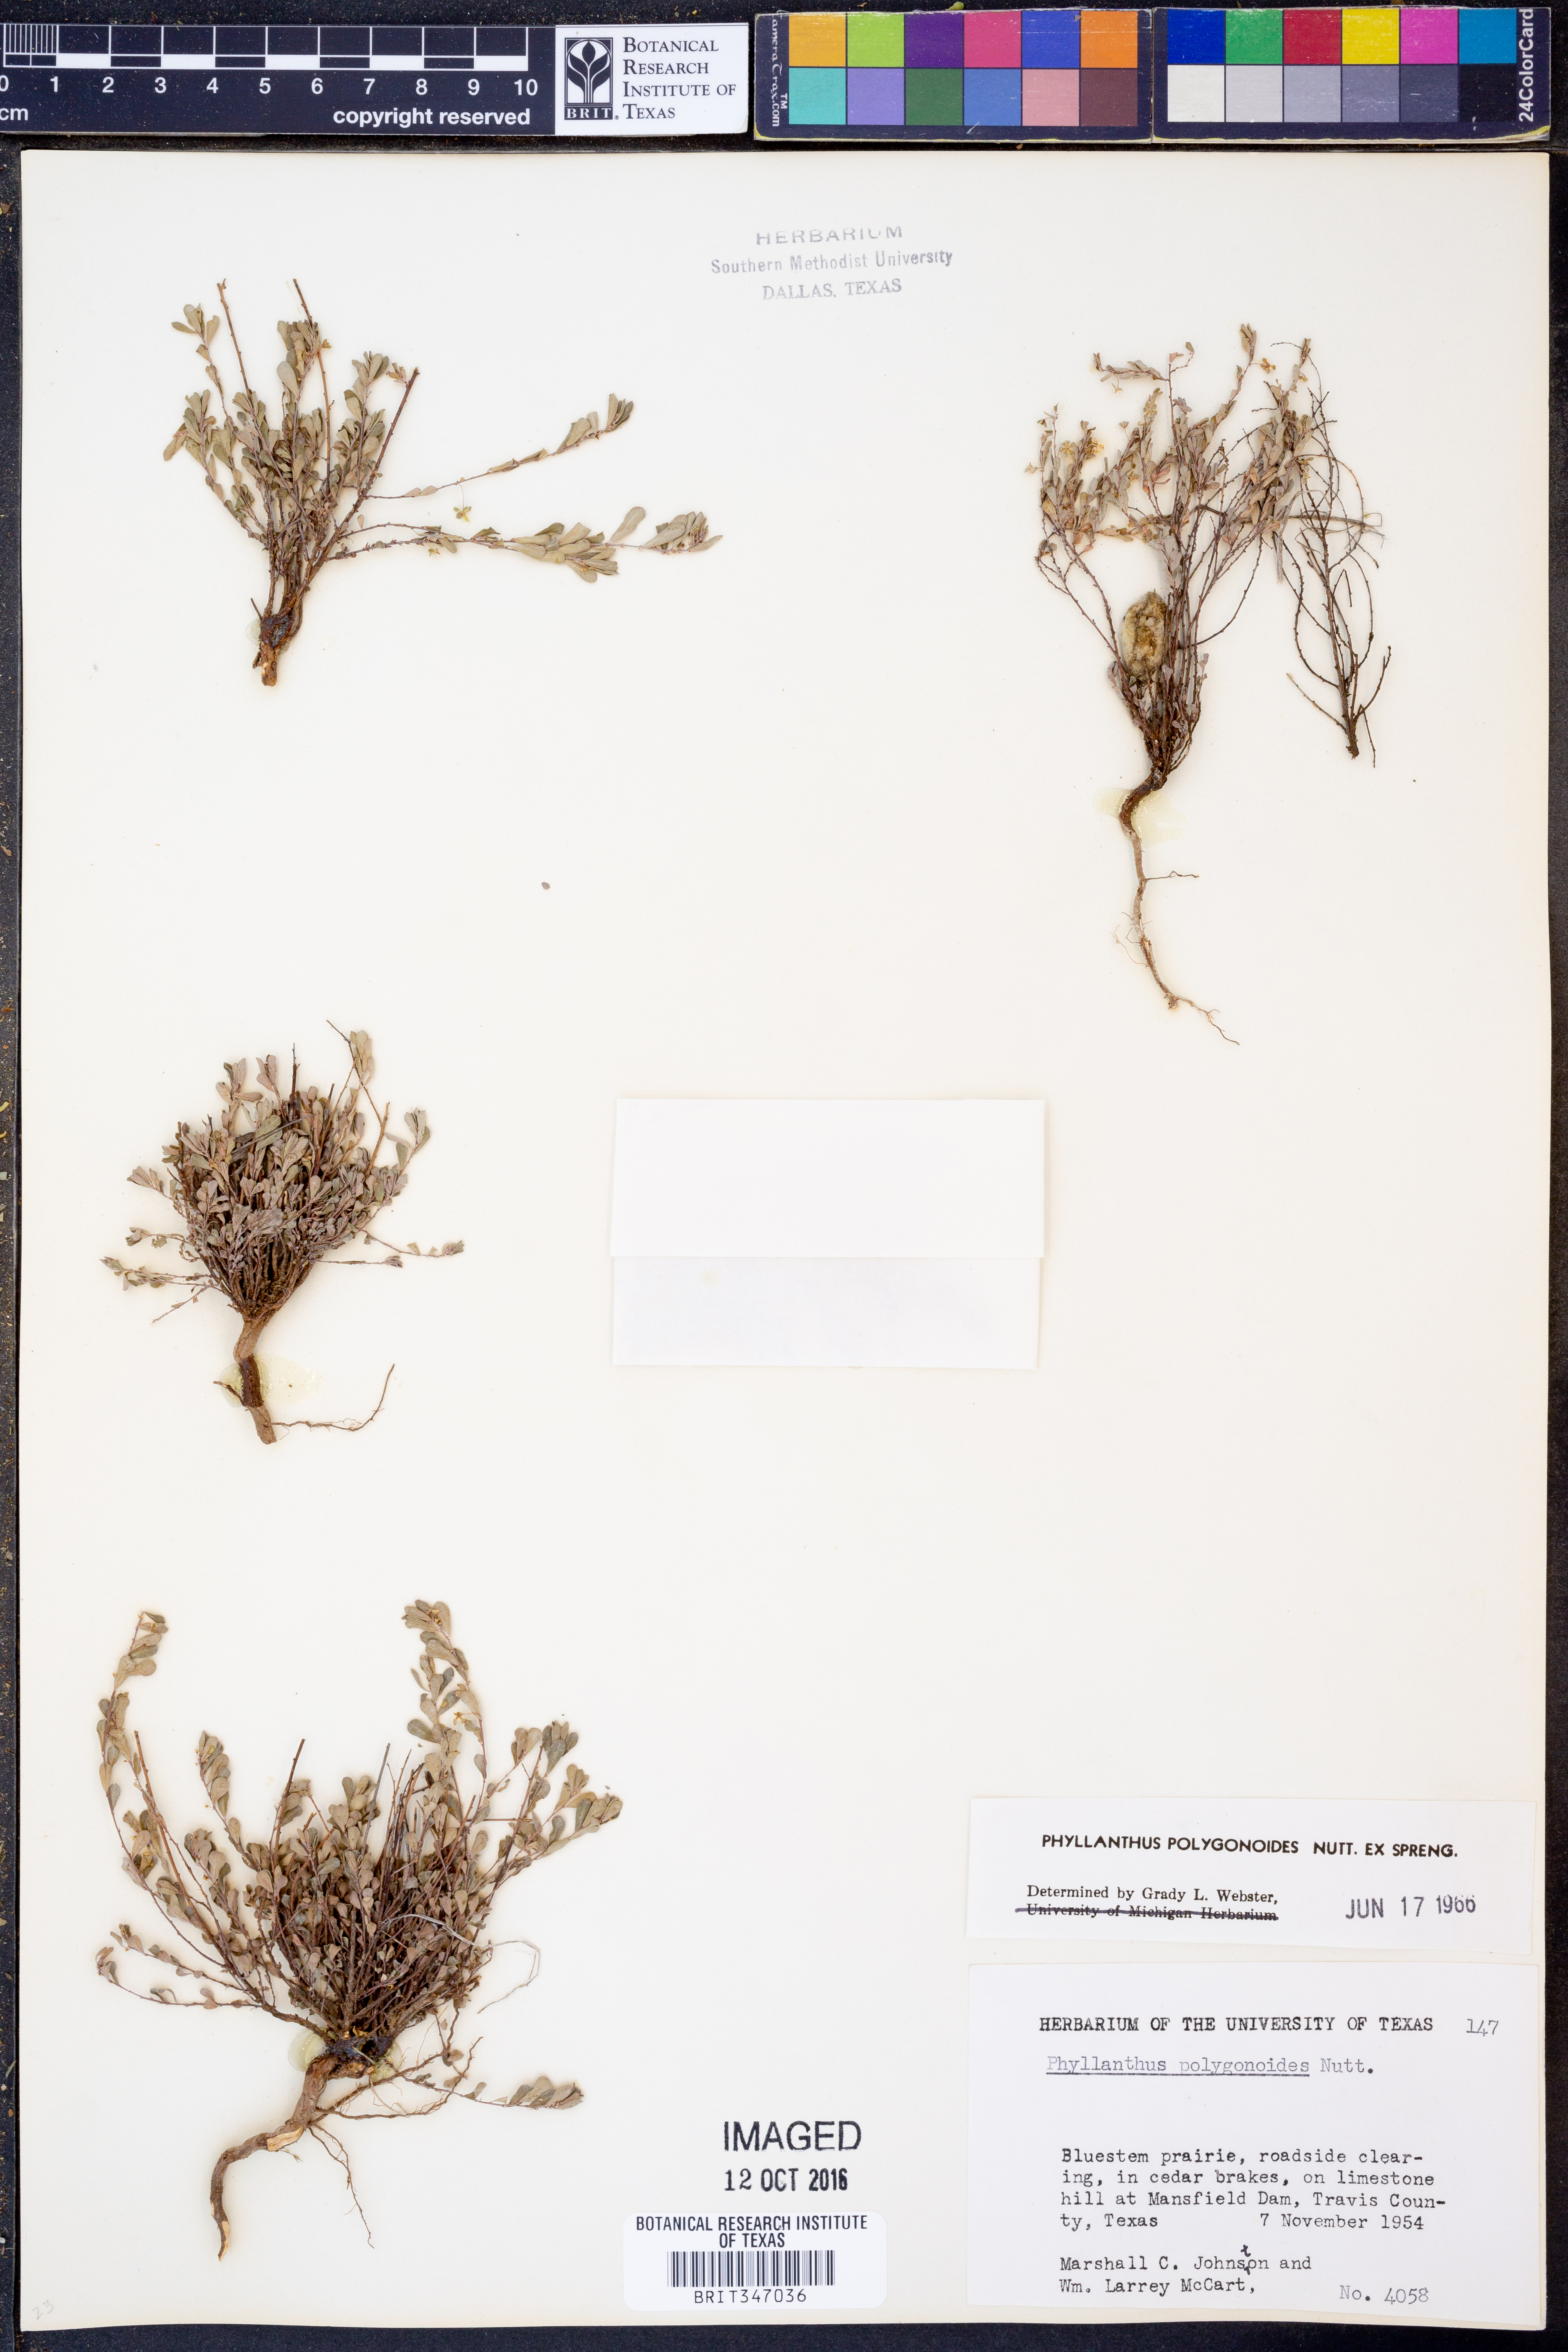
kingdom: Plantae
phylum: Tracheophyta
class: Magnoliopsida
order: Malpighiales
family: Phyllanthaceae
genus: Phyllanthus
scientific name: Phyllanthus polygonoides
